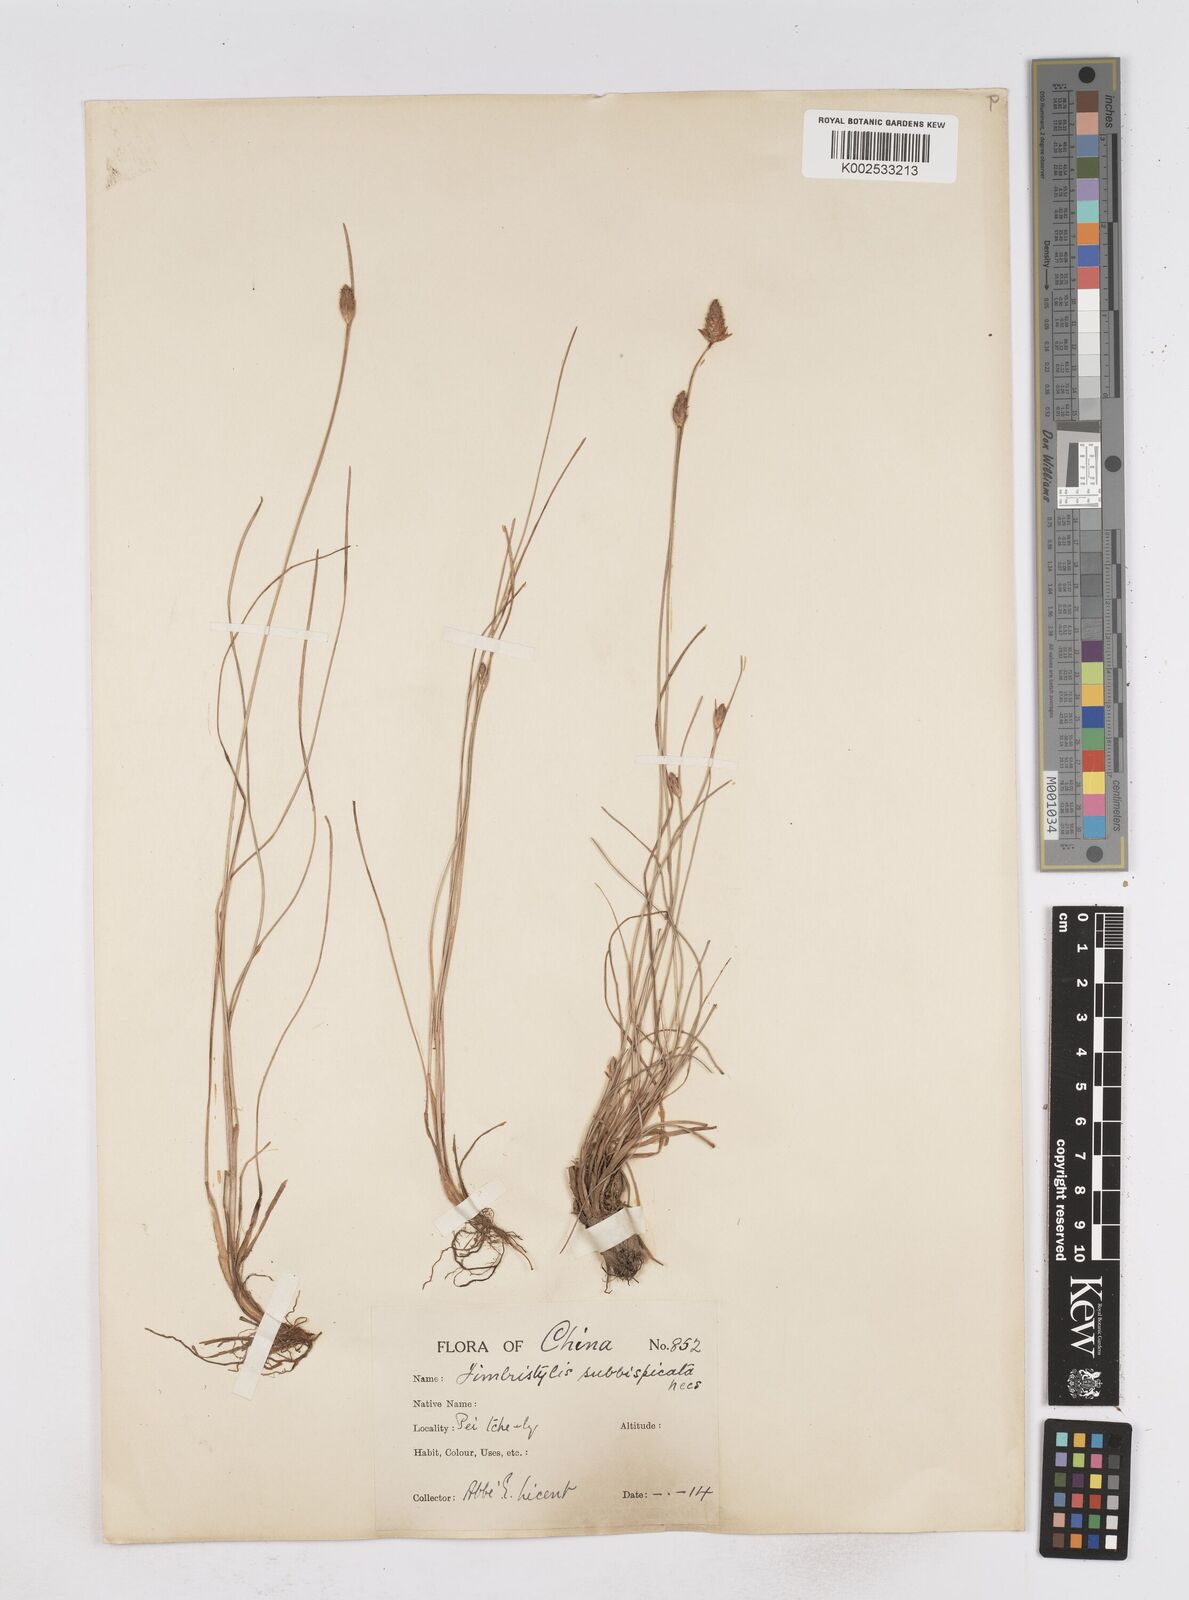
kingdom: Plantae
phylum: Tracheophyta
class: Liliopsida
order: Poales
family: Cyperaceae
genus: Fimbristylis
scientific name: Fimbristylis tristachya
